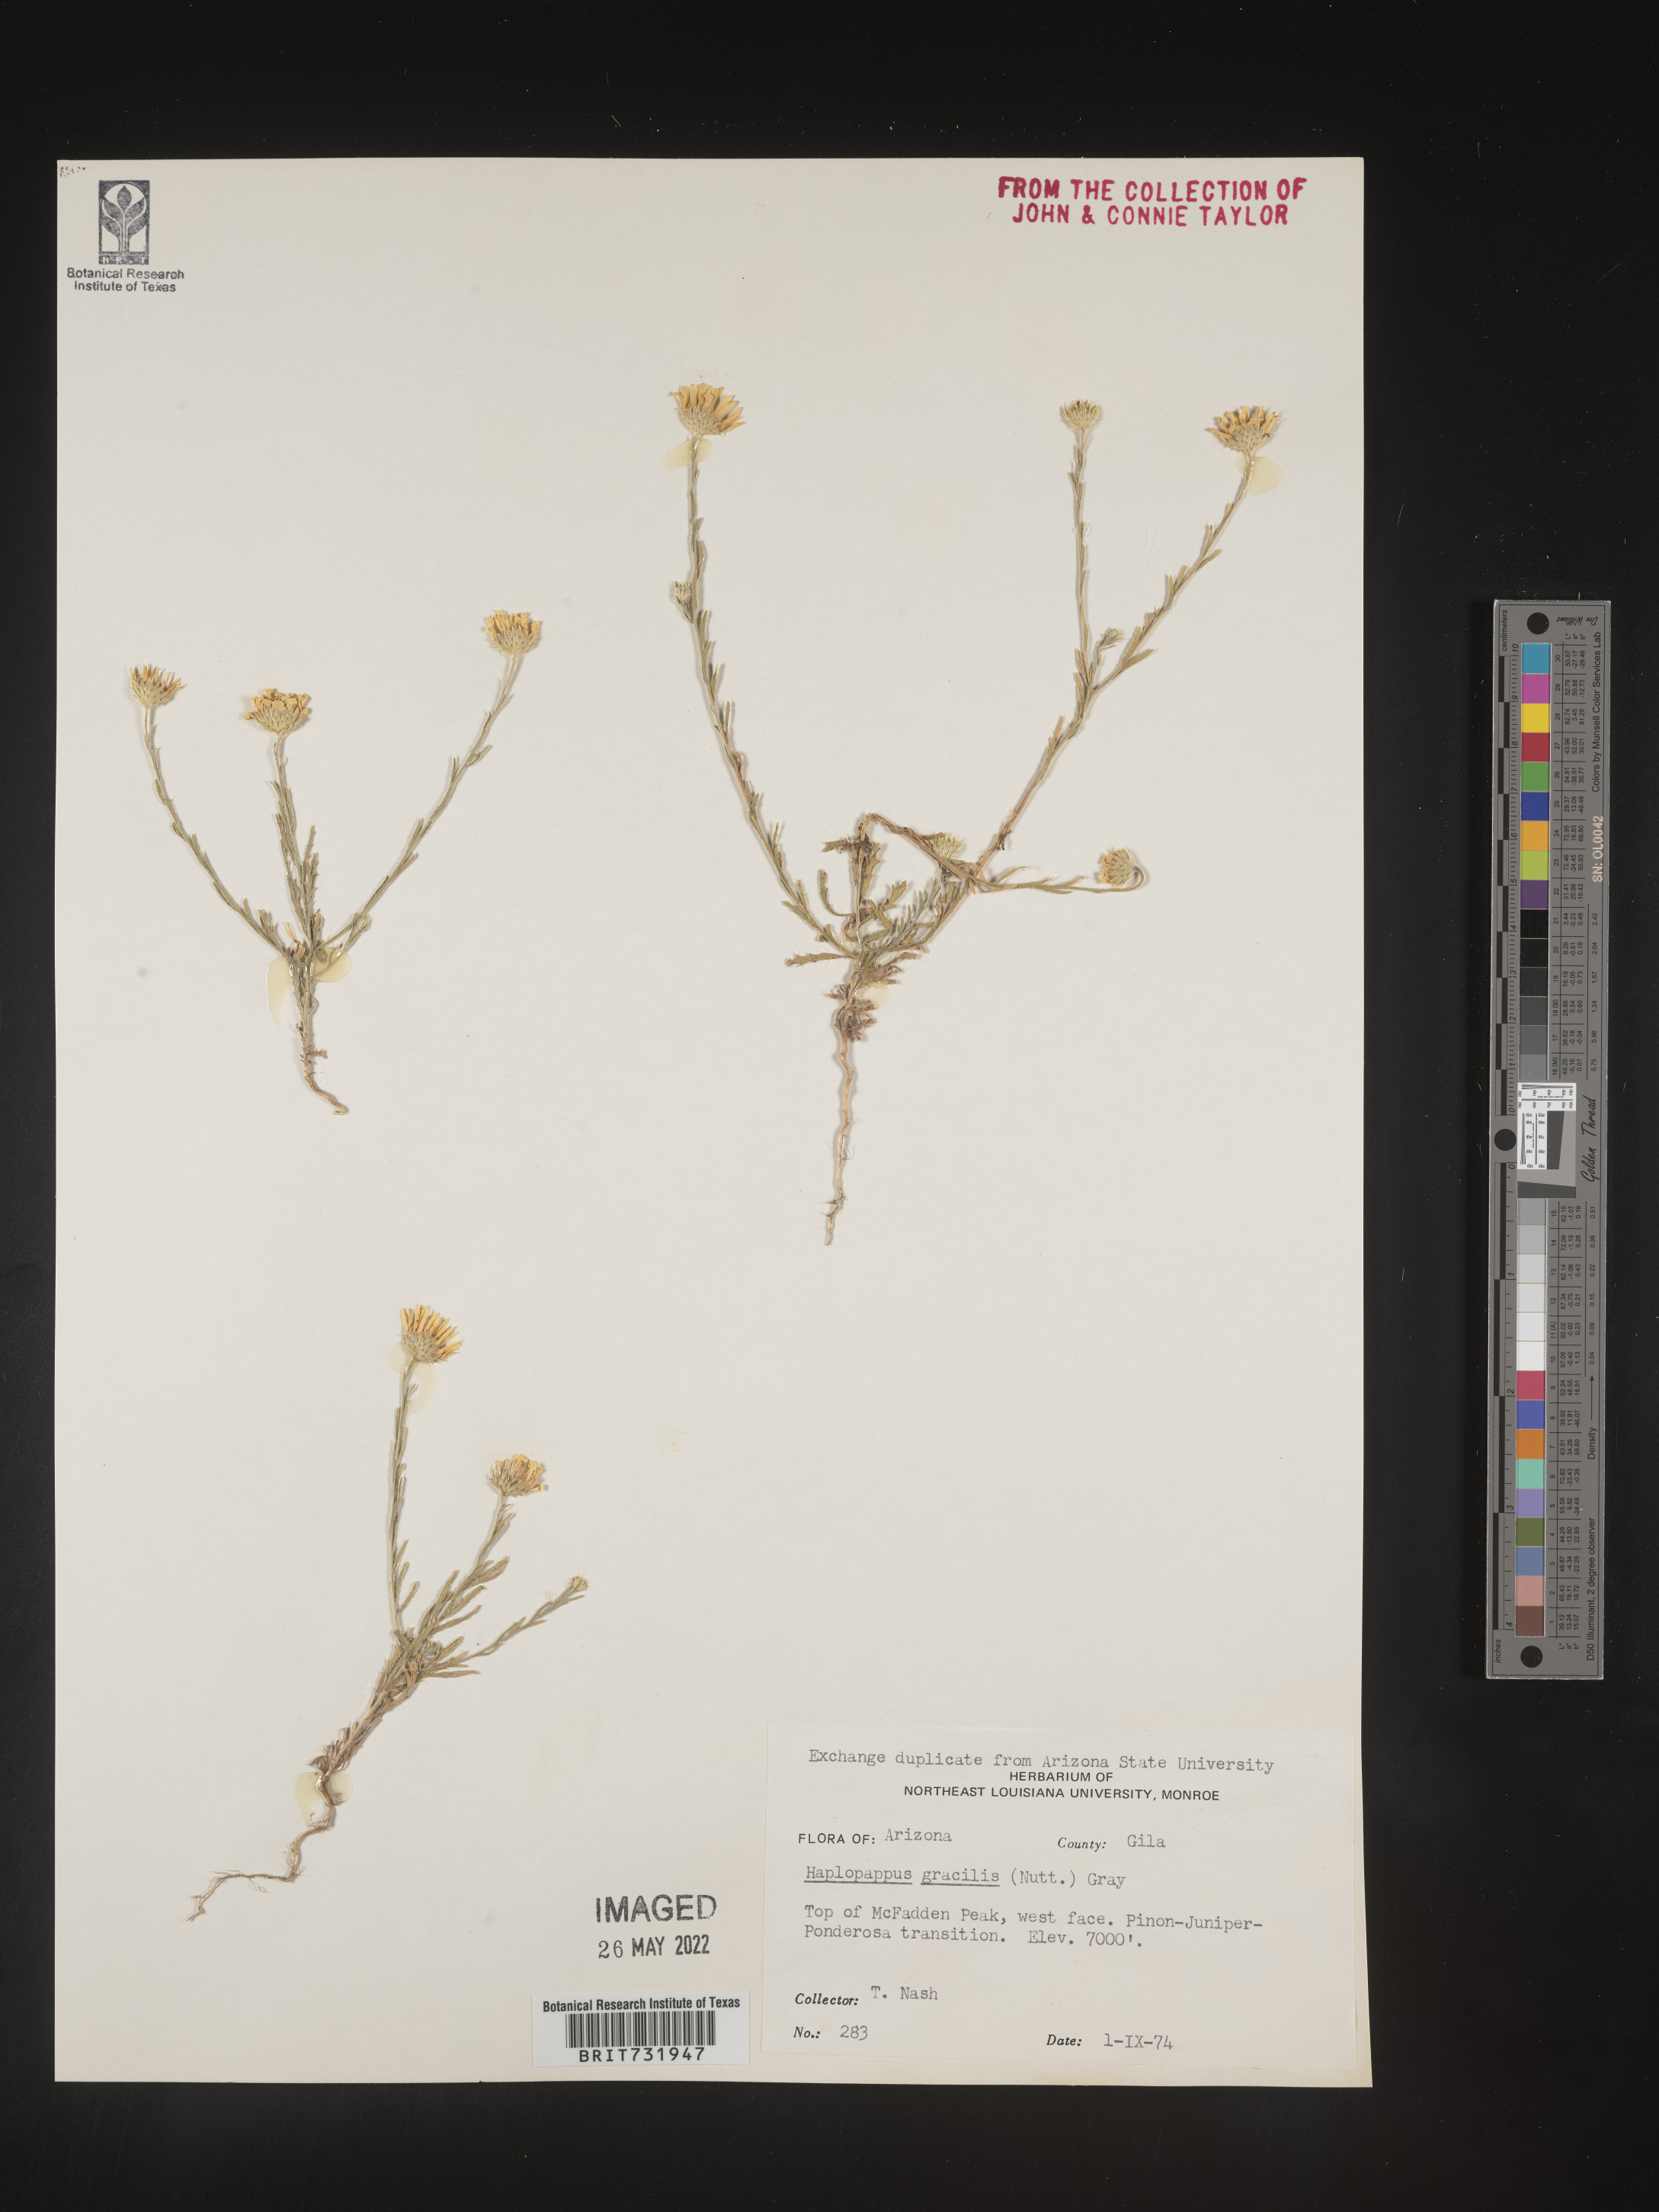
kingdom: Plantae
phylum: Tracheophyta
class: Magnoliopsida
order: Asterales
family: Asteraceae
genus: Xanthisma
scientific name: Xanthisma gracile
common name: Slender goldenweed
